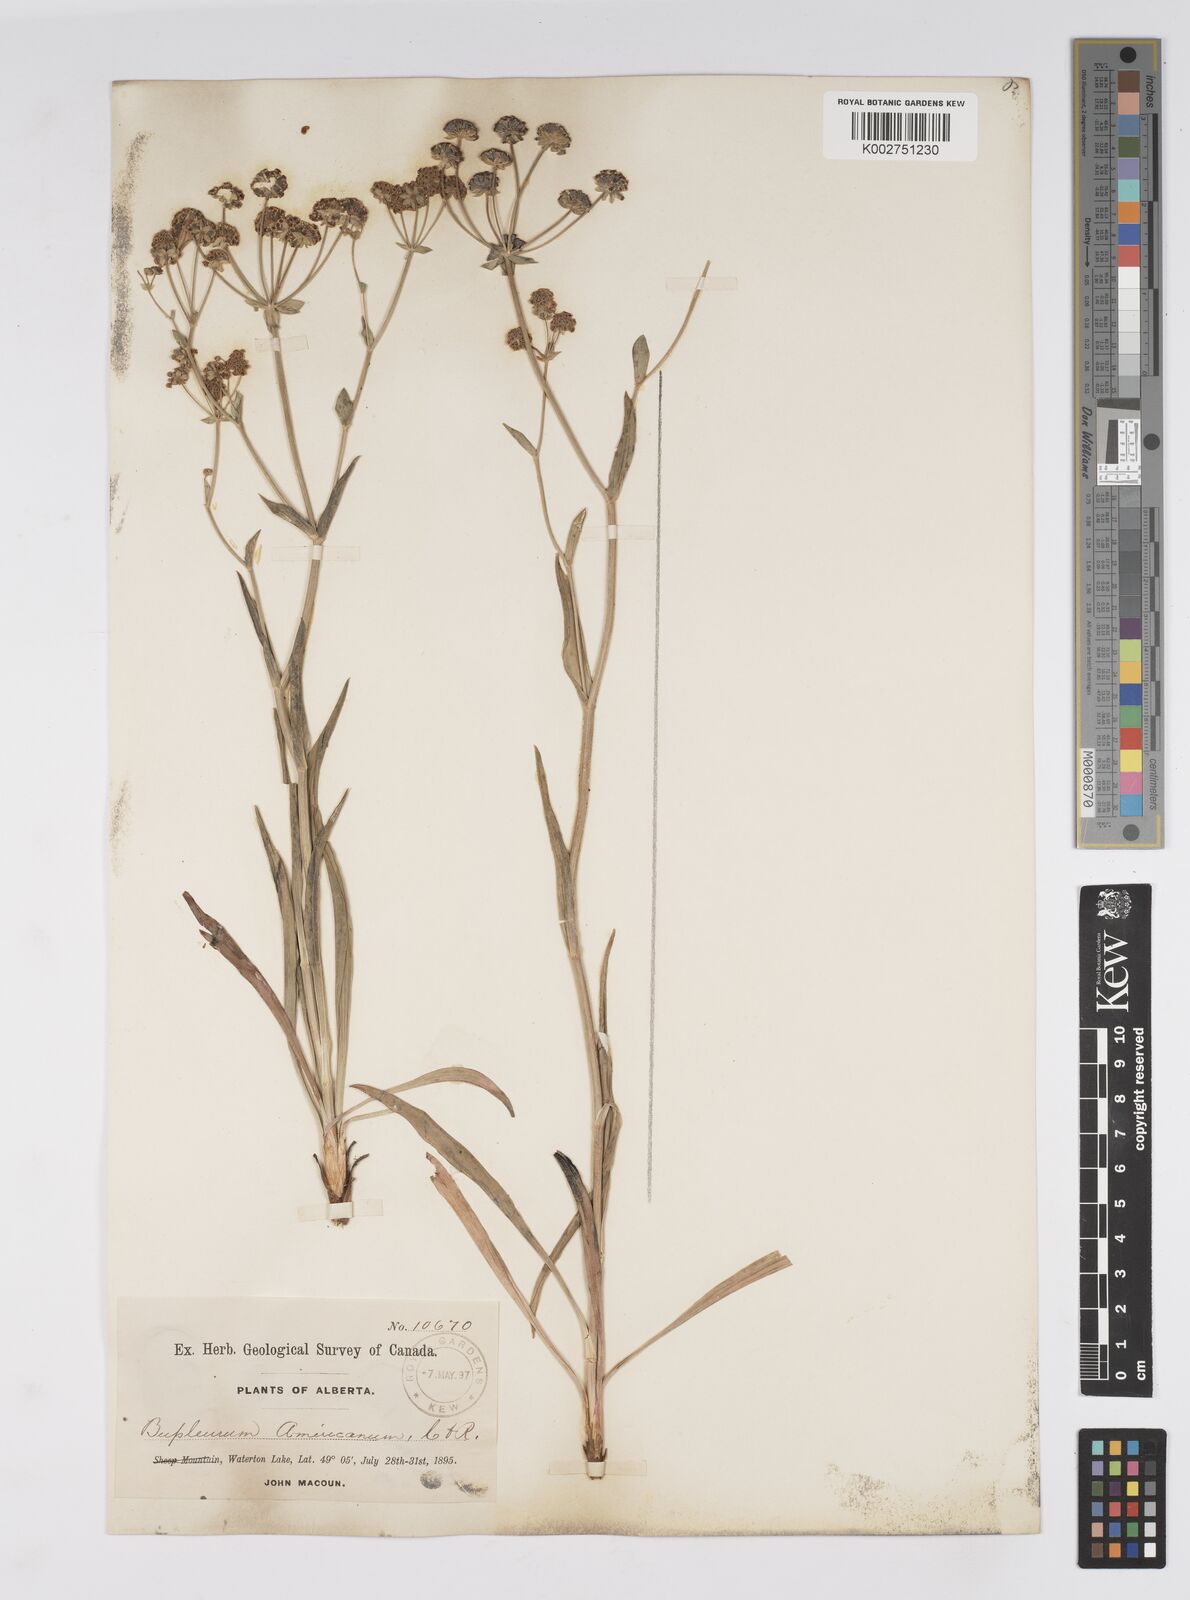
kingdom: Plantae
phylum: Tracheophyta
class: Magnoliopsida
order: Apiales
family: Apiaceae
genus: Bupleurum
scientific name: Bupleurum americanum
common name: American thoroughwax
